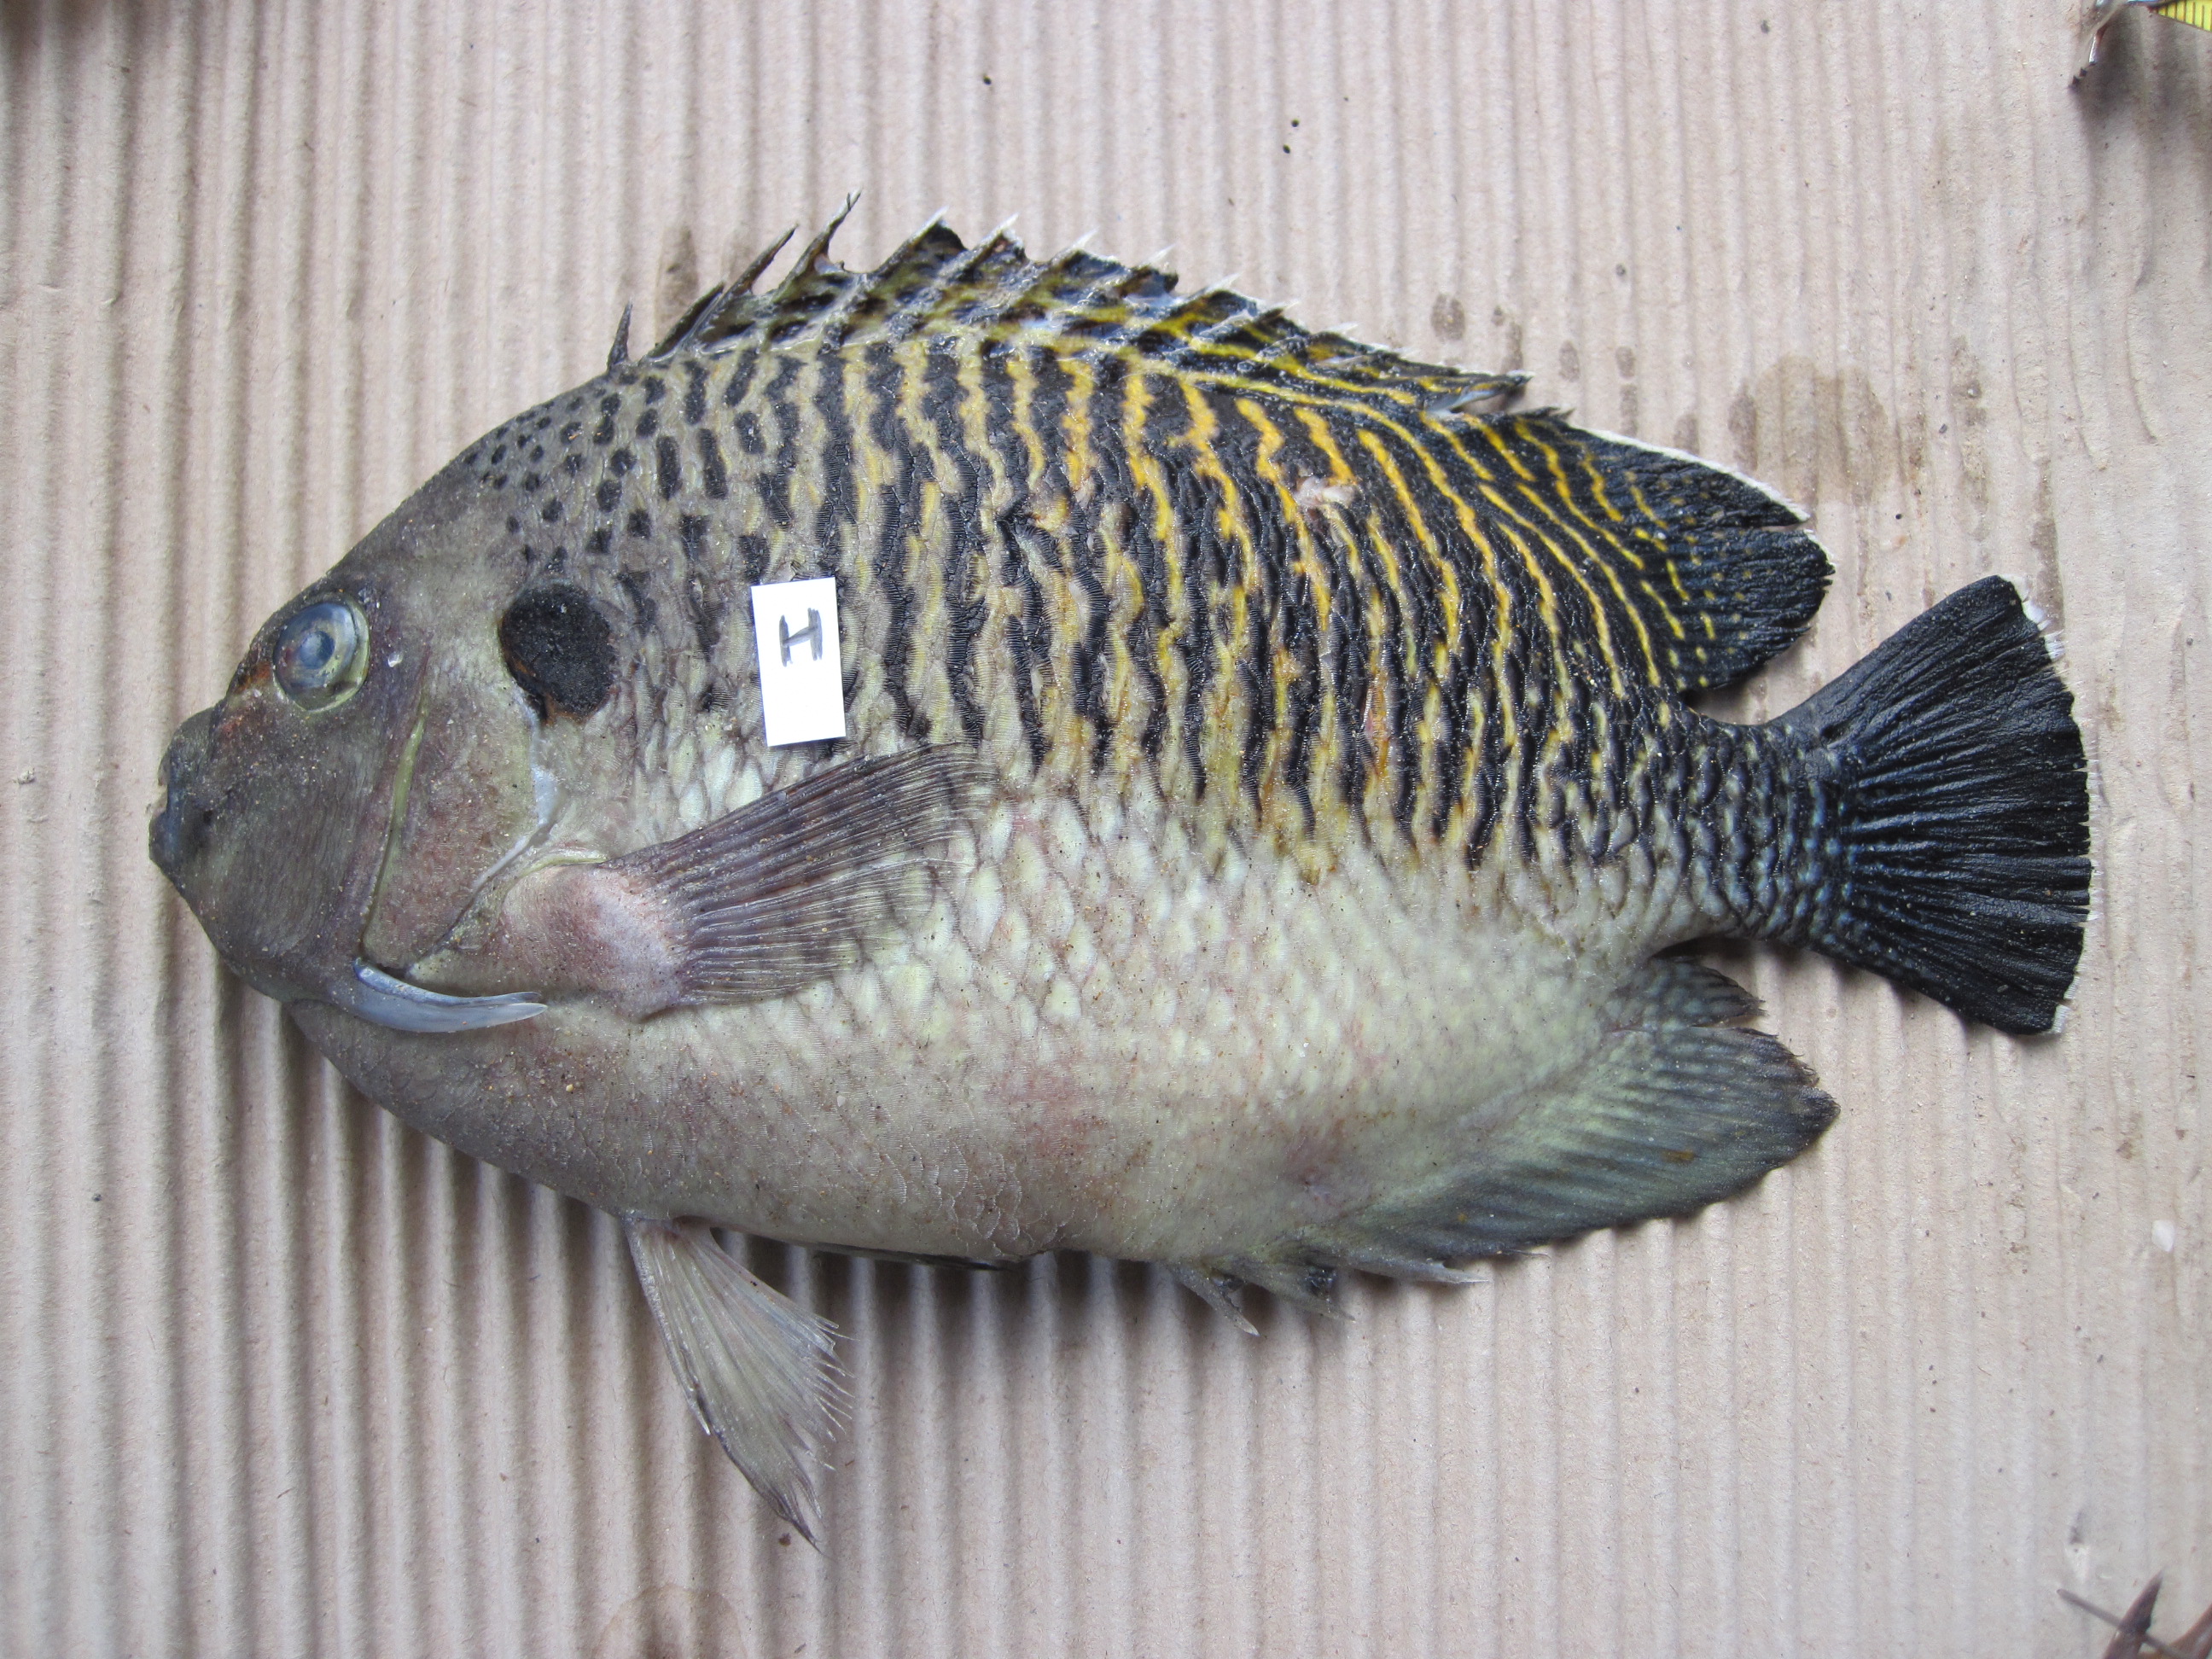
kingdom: Animalia
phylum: Chordata
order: Perciformes
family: Pomacanthidae
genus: Apolemichthys
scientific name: Apolemichthys kingi
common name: Tiger angelfish
